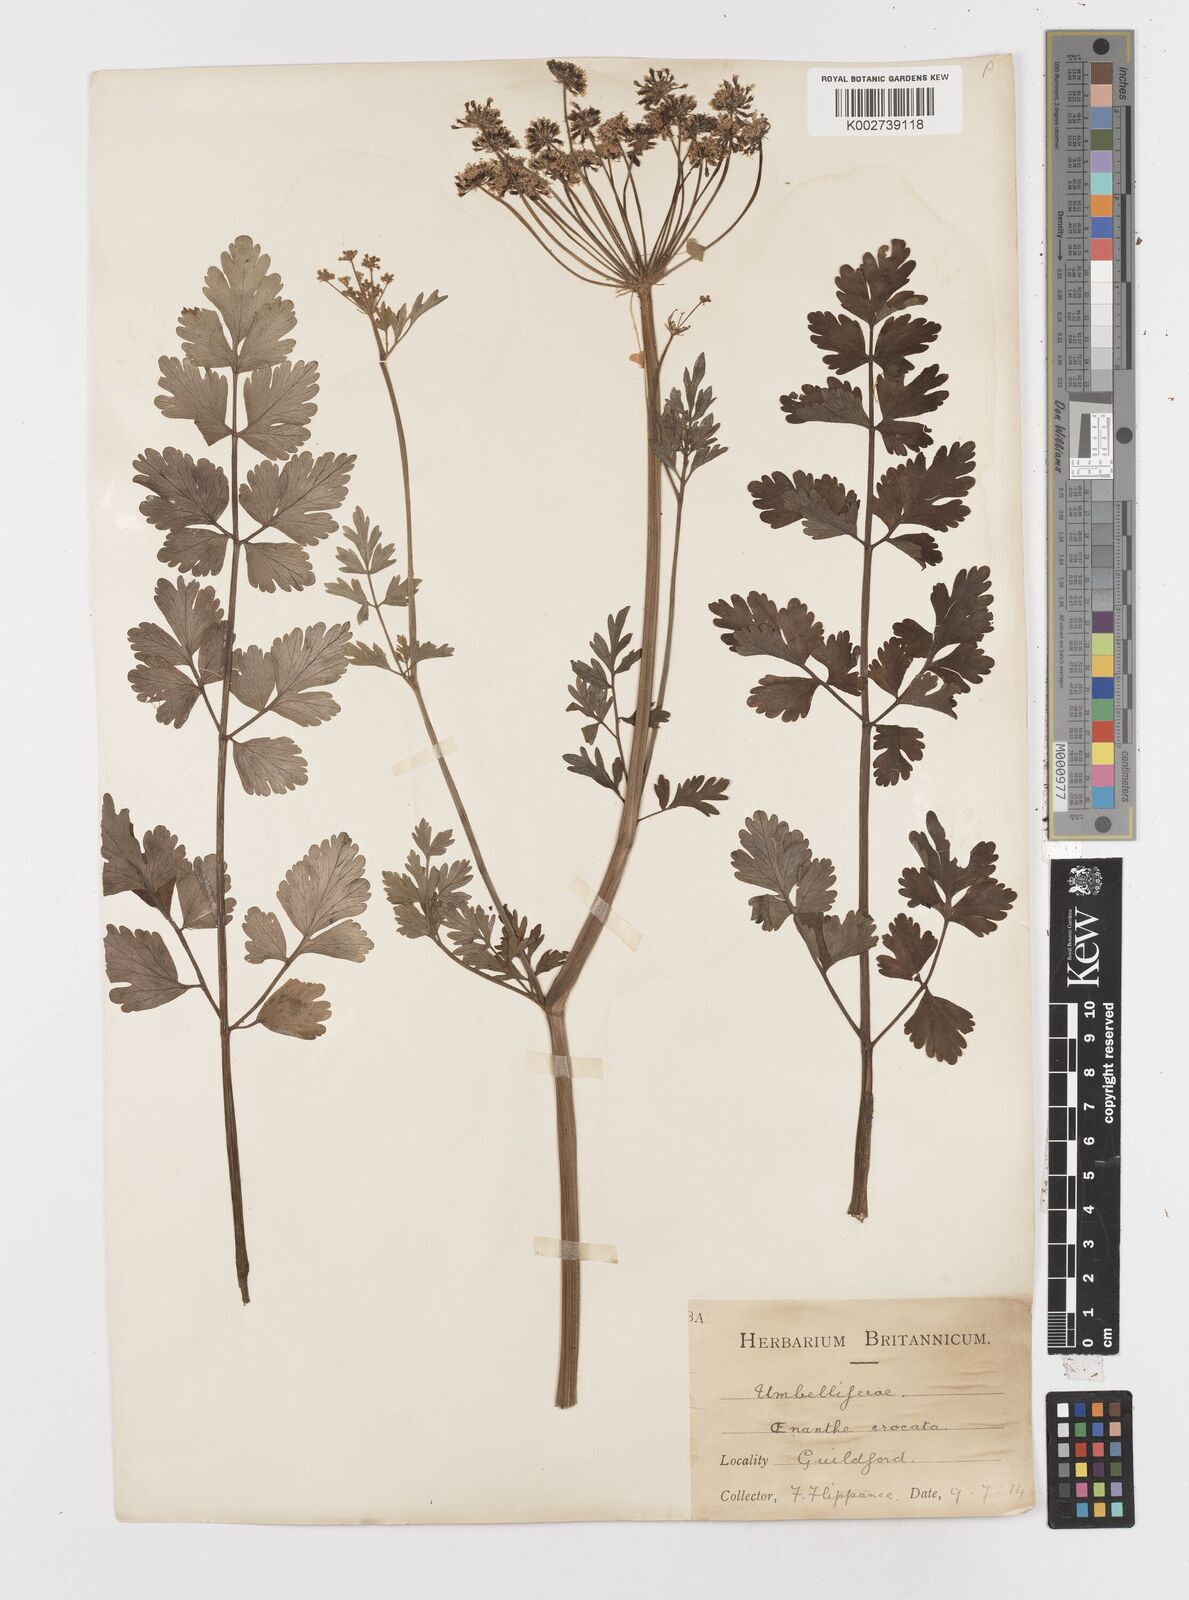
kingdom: Plantae
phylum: Tracheophyta
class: Magnoliopsida
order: Apiales
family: Apiaceae
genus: Oenanthe
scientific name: Oenanthe crocata
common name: Hemlock water-dropwort
